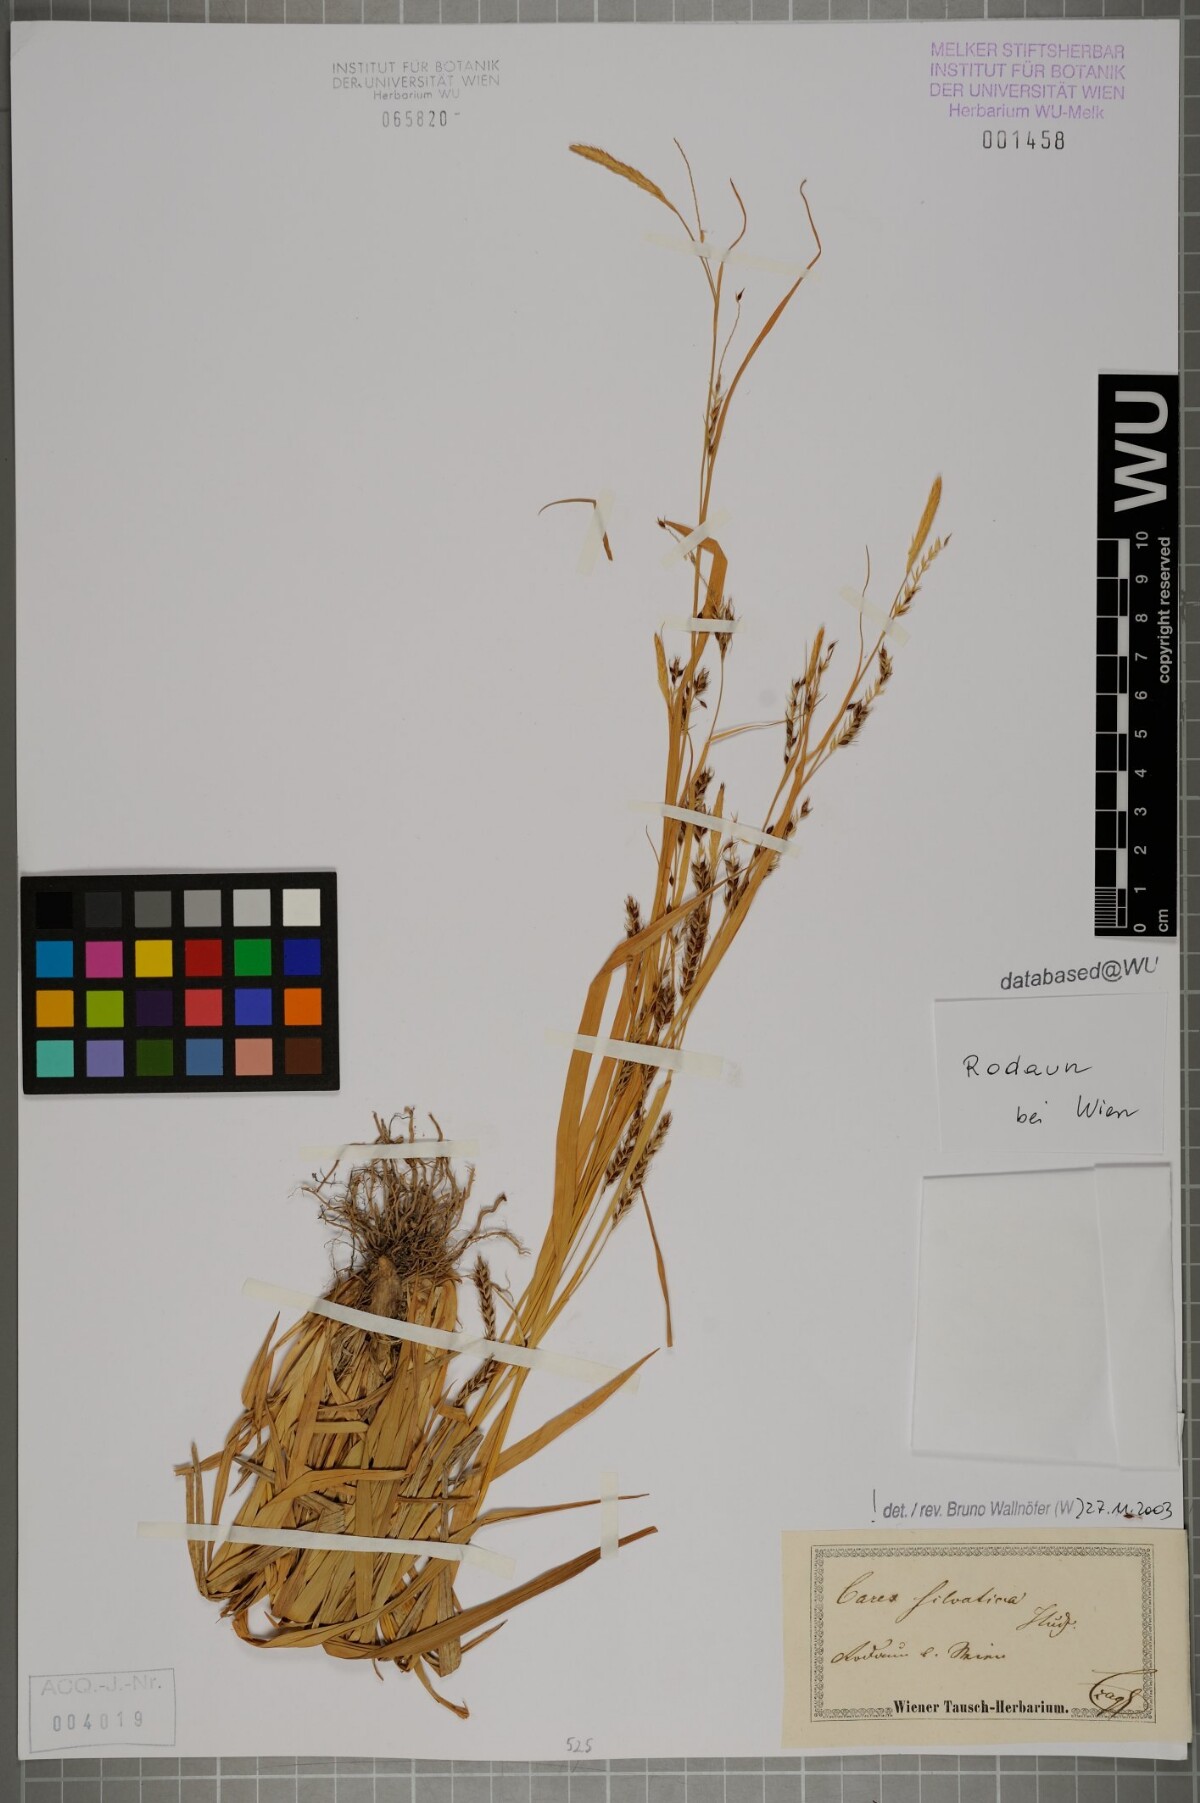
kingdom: Plantae
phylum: Tracheophyta
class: Liliopsida
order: Poales
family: Cyperaceae
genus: Carex
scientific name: Carex sylvatica
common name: Wood-sedge
